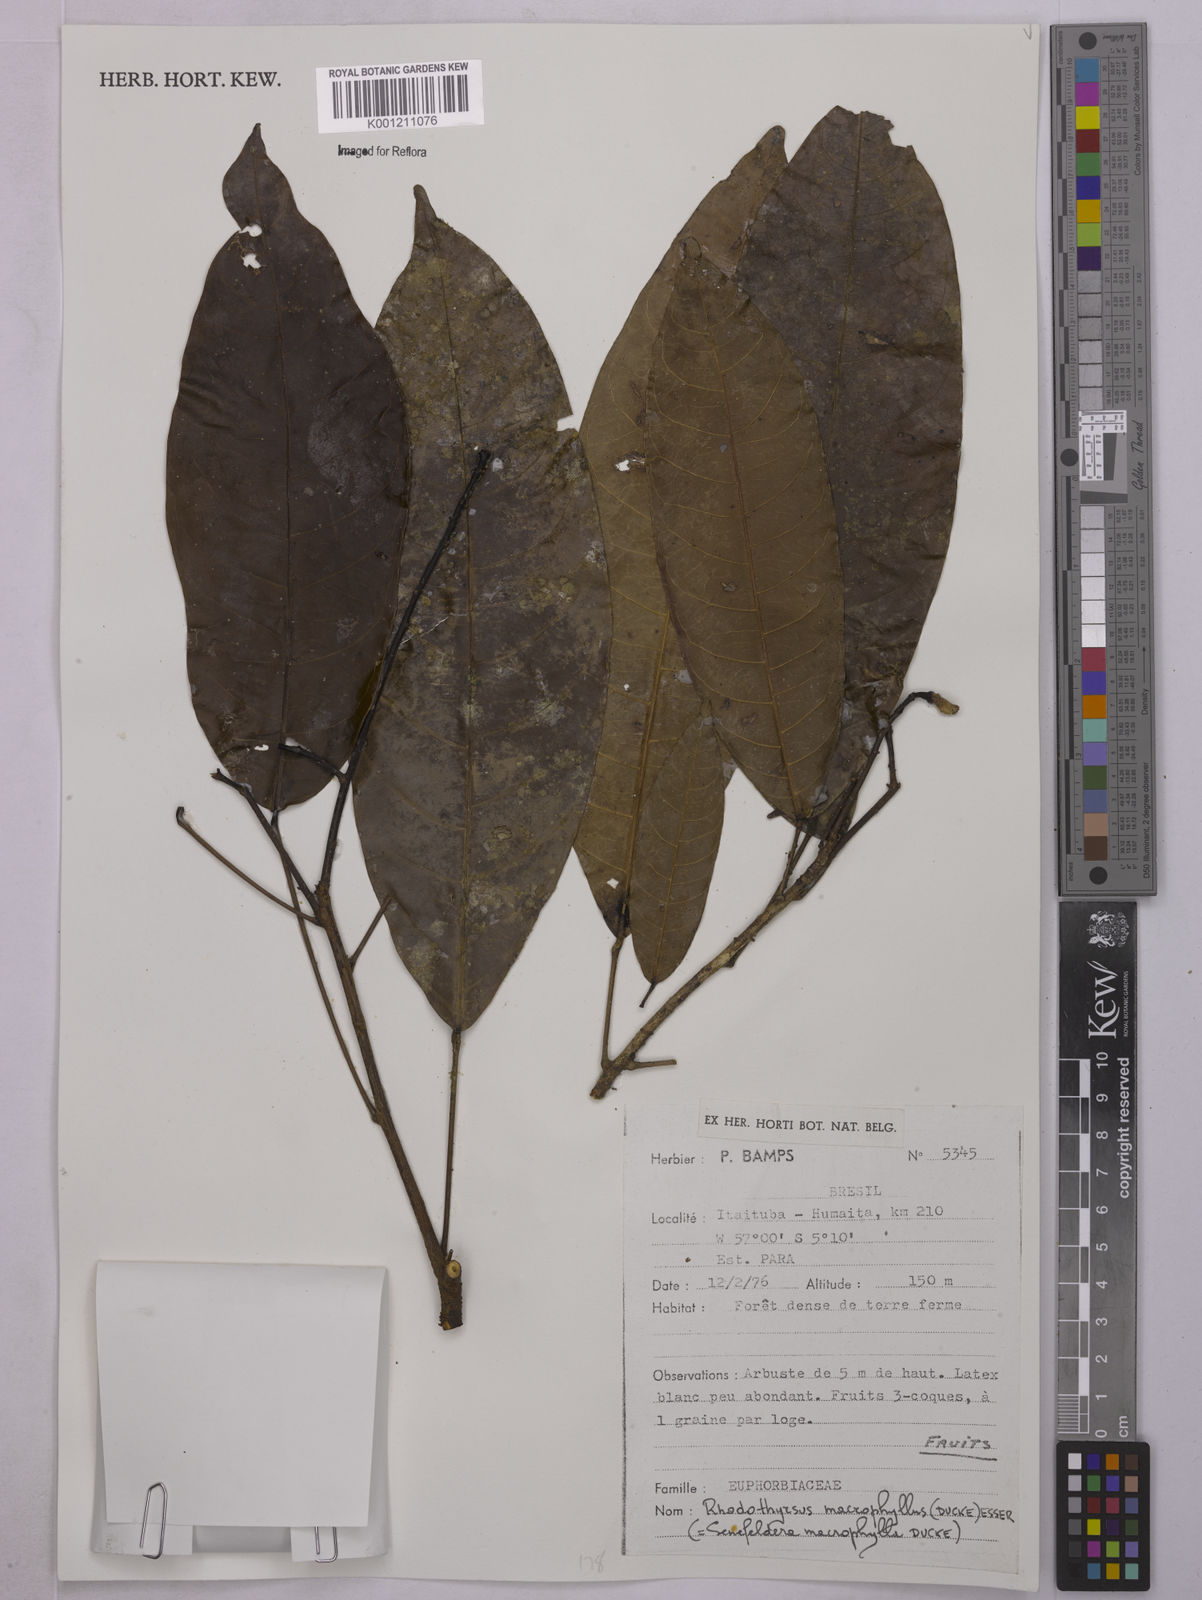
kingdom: Plantae
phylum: Tracheophyta
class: Magnoliopsida
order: Malpighiales
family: Euphorbiaceae
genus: Rhodothyrsus
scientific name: Rhodothyrsus macrophyllus
